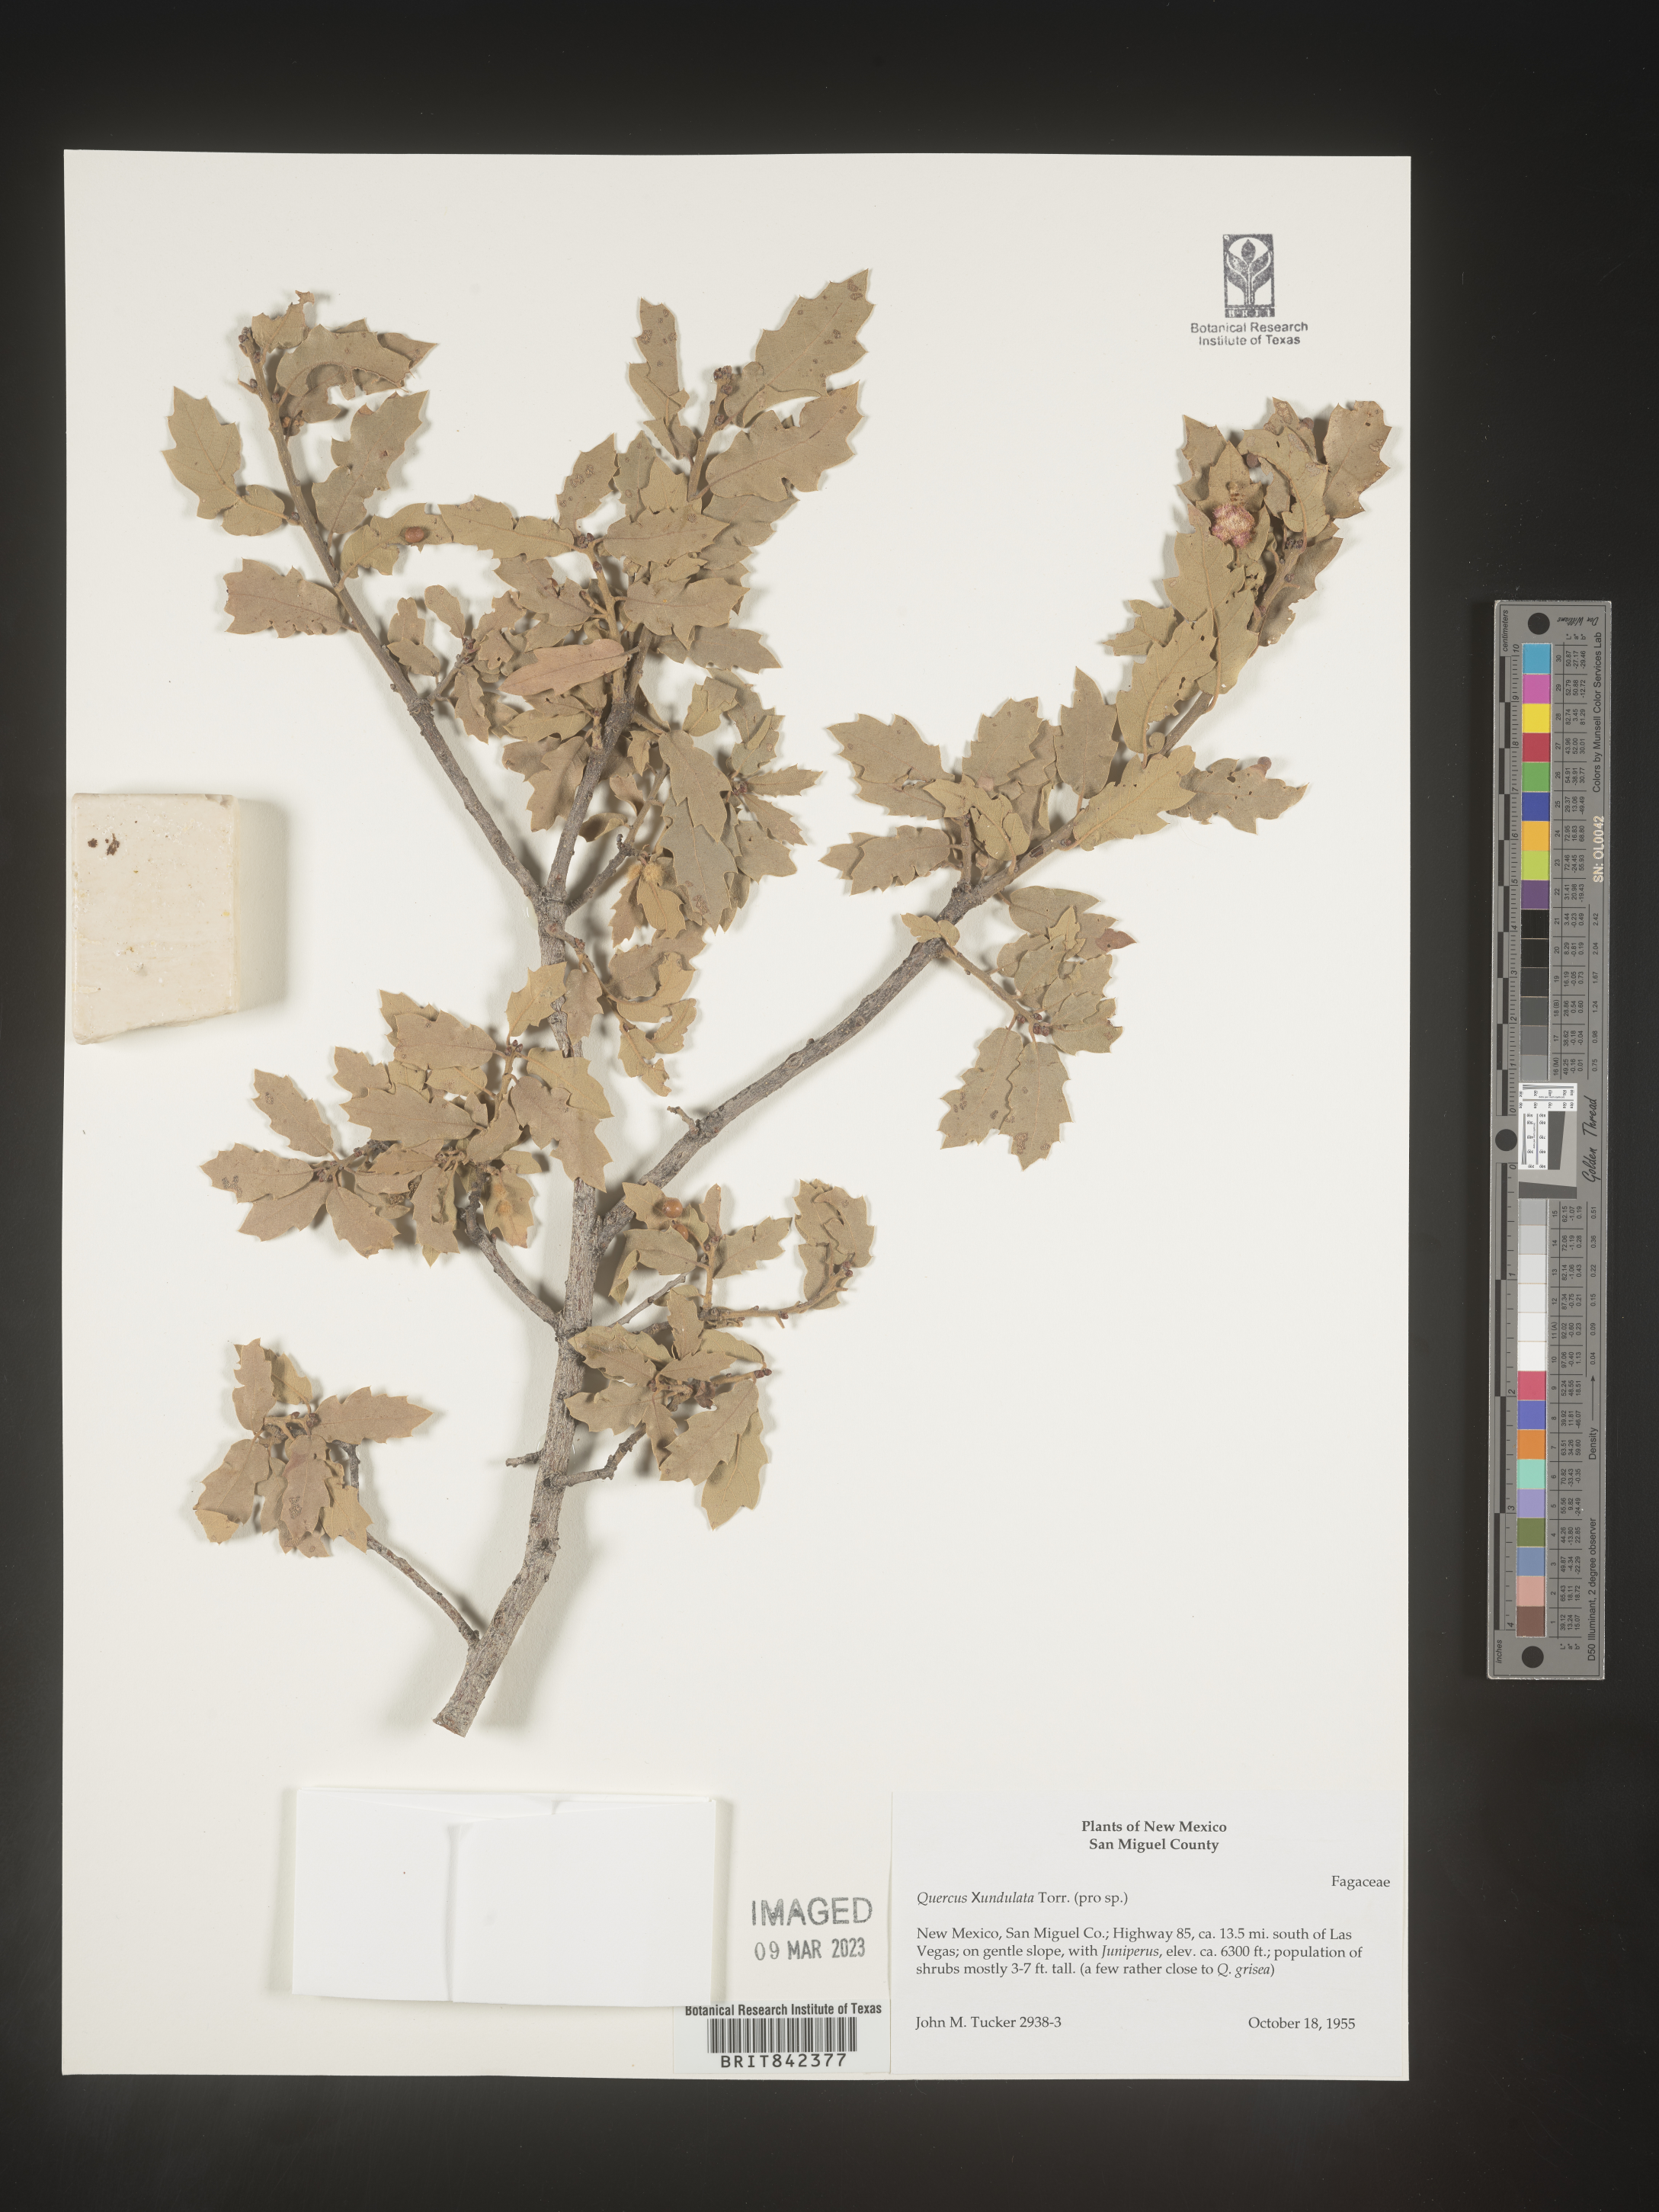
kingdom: Plantae
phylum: Tracheophyta
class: Magnoliopsida
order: Fagales
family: Fagaceae
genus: Quercus
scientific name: Quercus undulata
